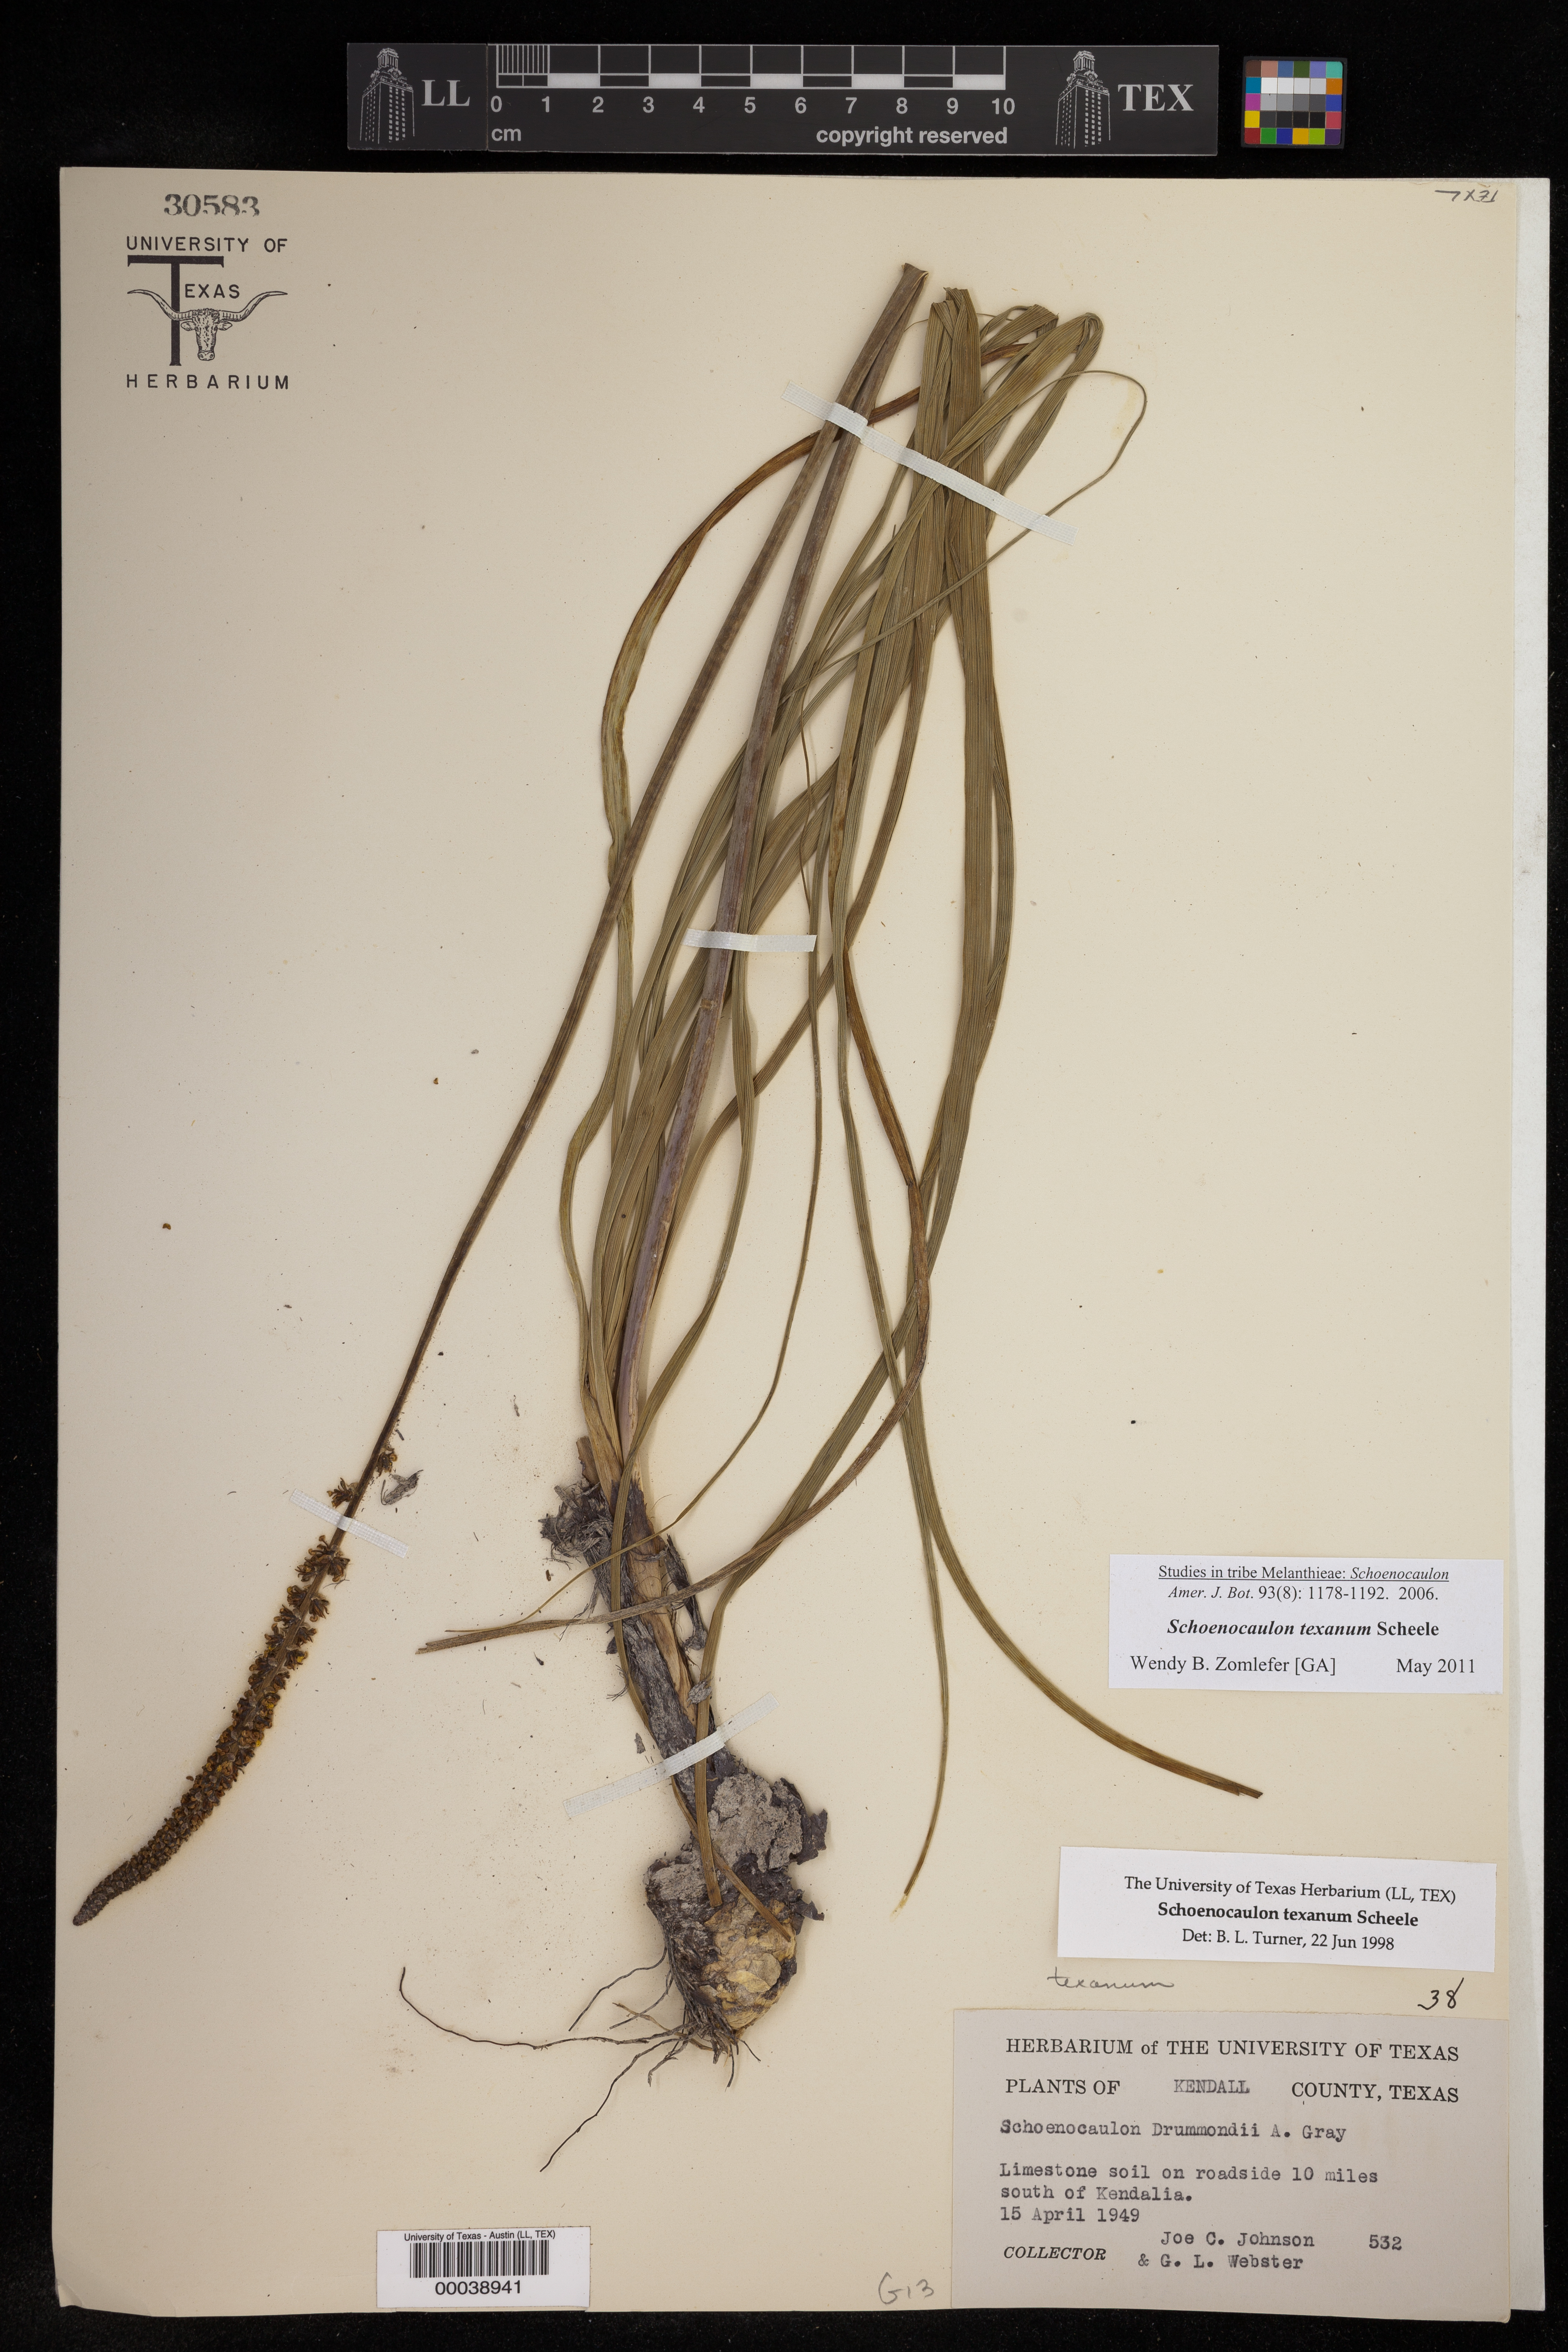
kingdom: Plantae
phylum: Tracheophyta
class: Liliopsida
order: Liliales
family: Melanthiaceae
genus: Schoenocaulon
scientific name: Schoenocaulon texanum
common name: Texas feather-shank
